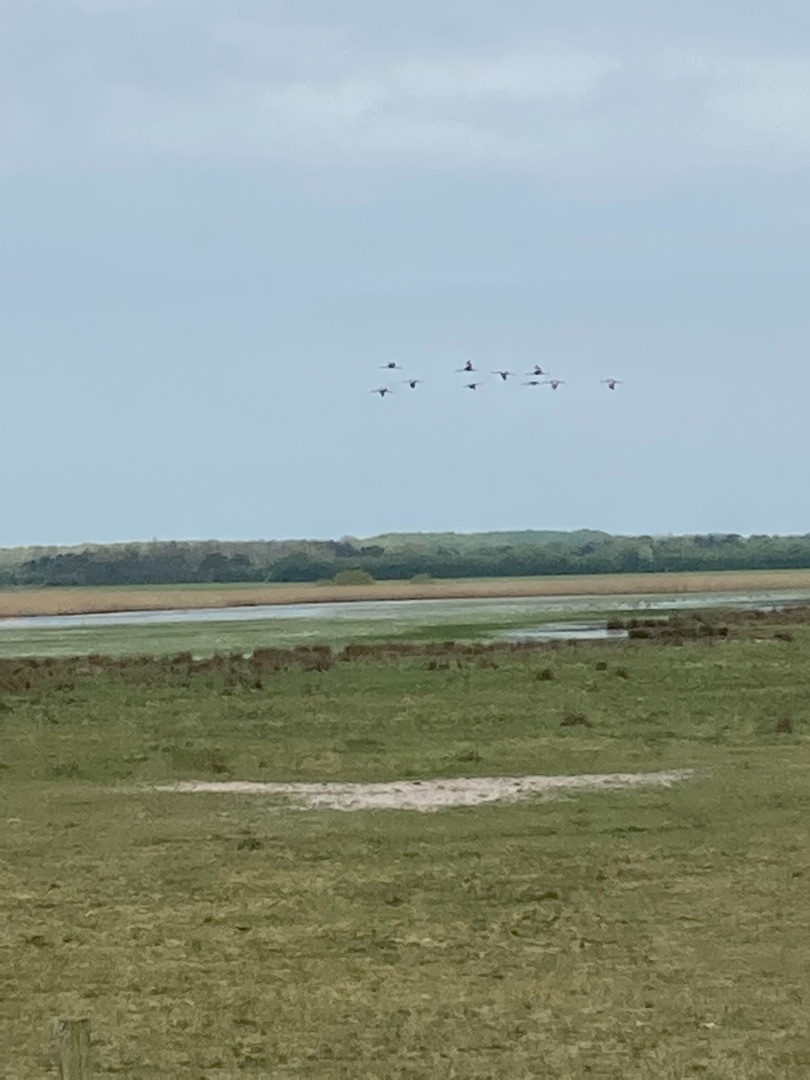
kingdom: Animalia
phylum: Chordata
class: Aves
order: Gruiformes
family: Gruidae
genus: Grus
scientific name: Grus grus
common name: Trane
